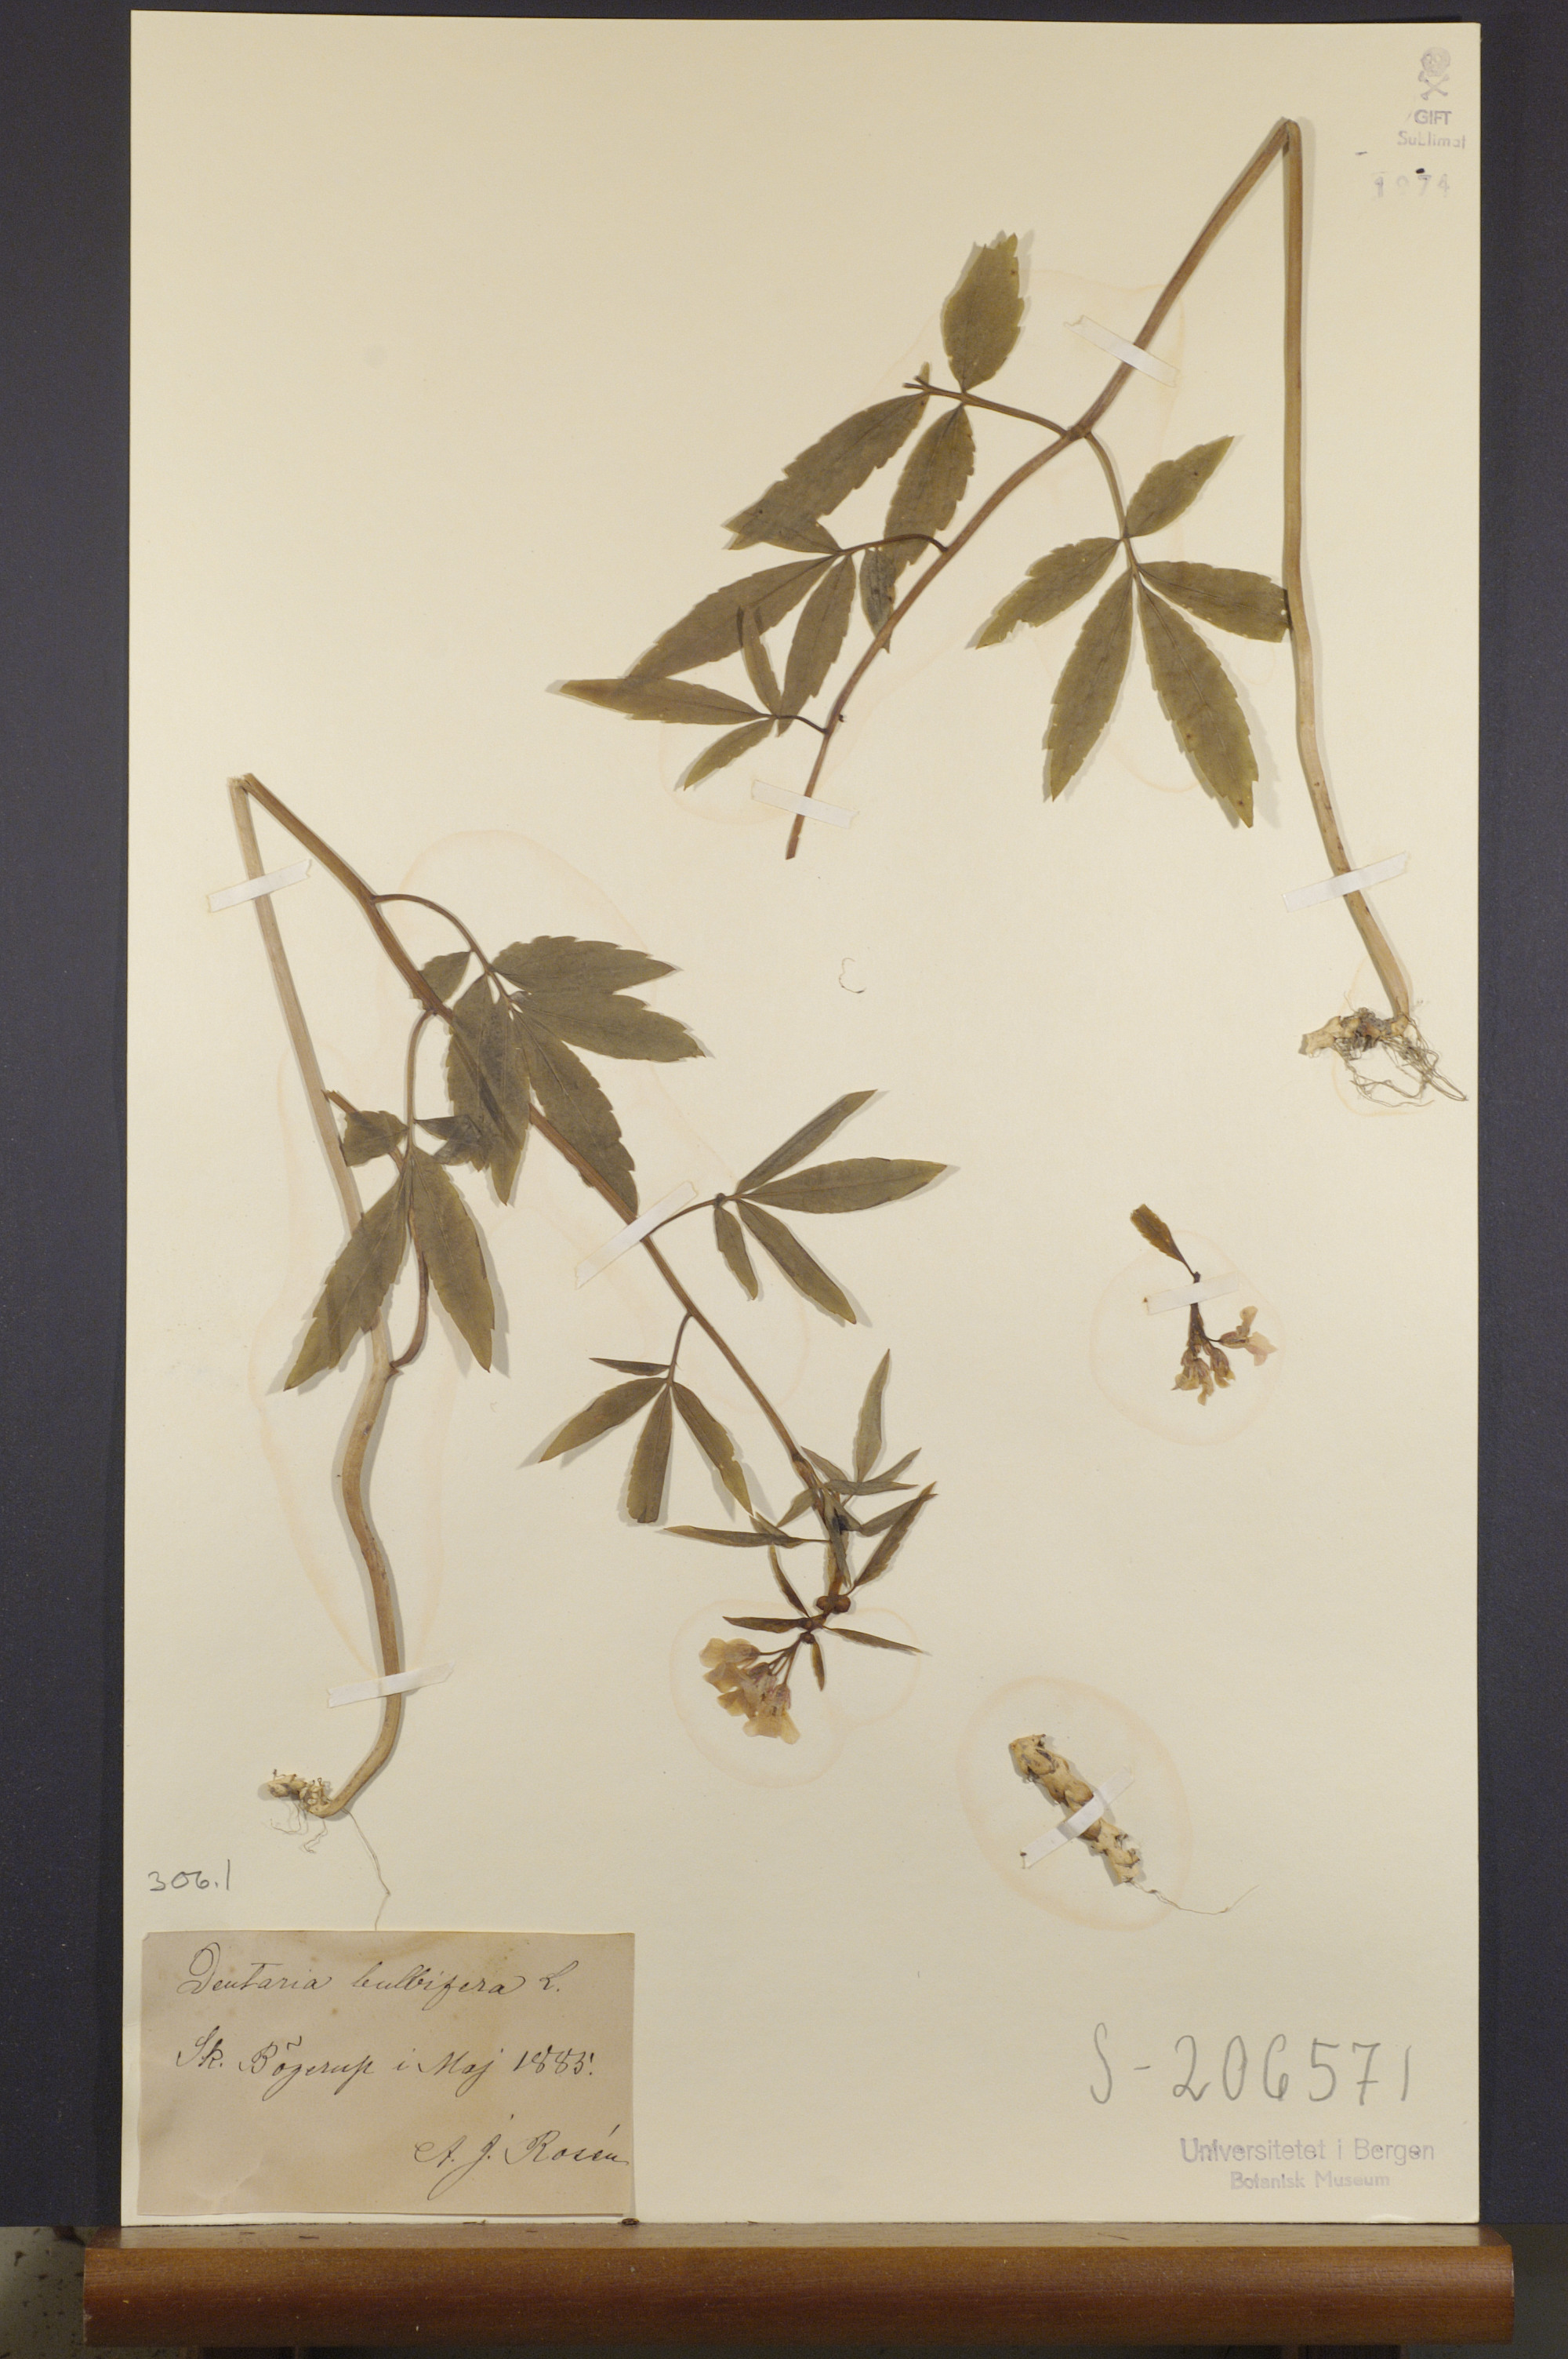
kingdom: Plantae
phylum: Tracheophyta
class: Magnoliopsida
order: Brassicales
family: Brassicaceae
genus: Cardamine
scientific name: Cardamine bulbifera
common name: Coralroot bittercress
